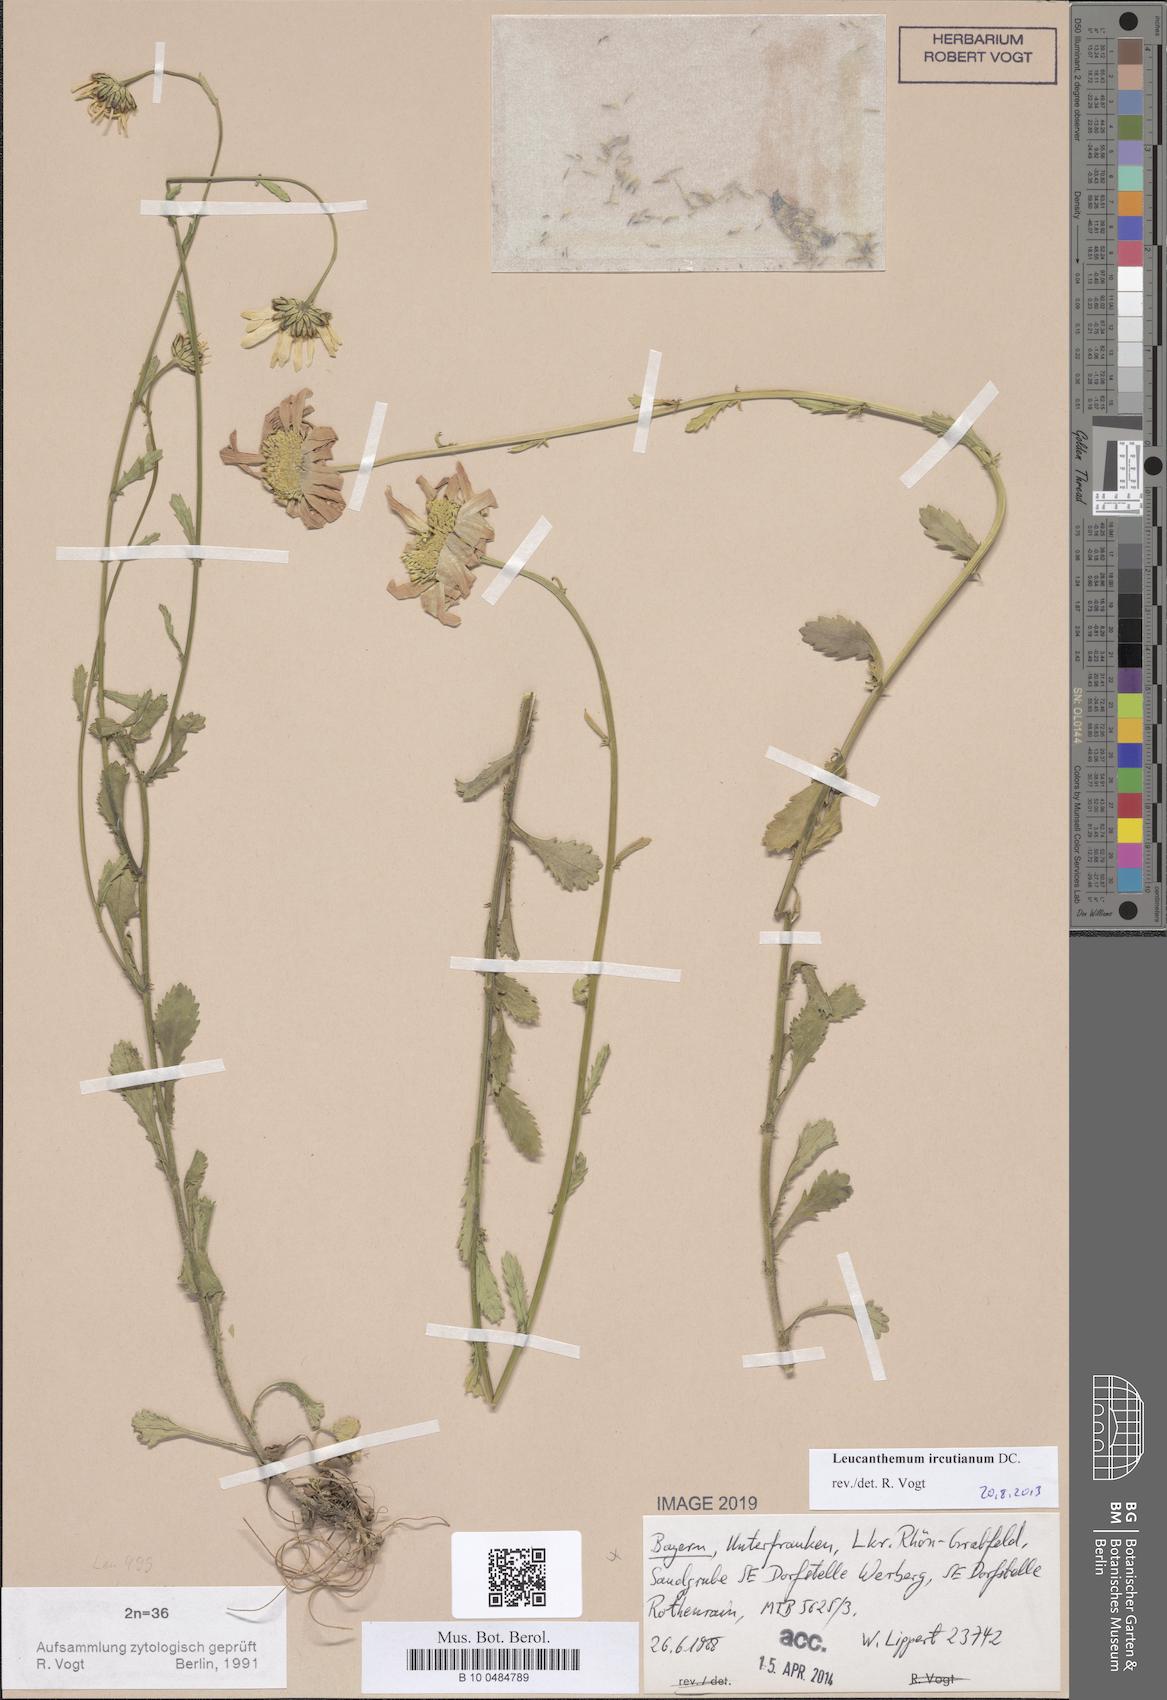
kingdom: Plantae
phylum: Tracheophyta
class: Magnoliopsida
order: Asterales
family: Asteraceae
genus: Leucanthemum
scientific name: Leucanthemum ircutianum
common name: Daisy
